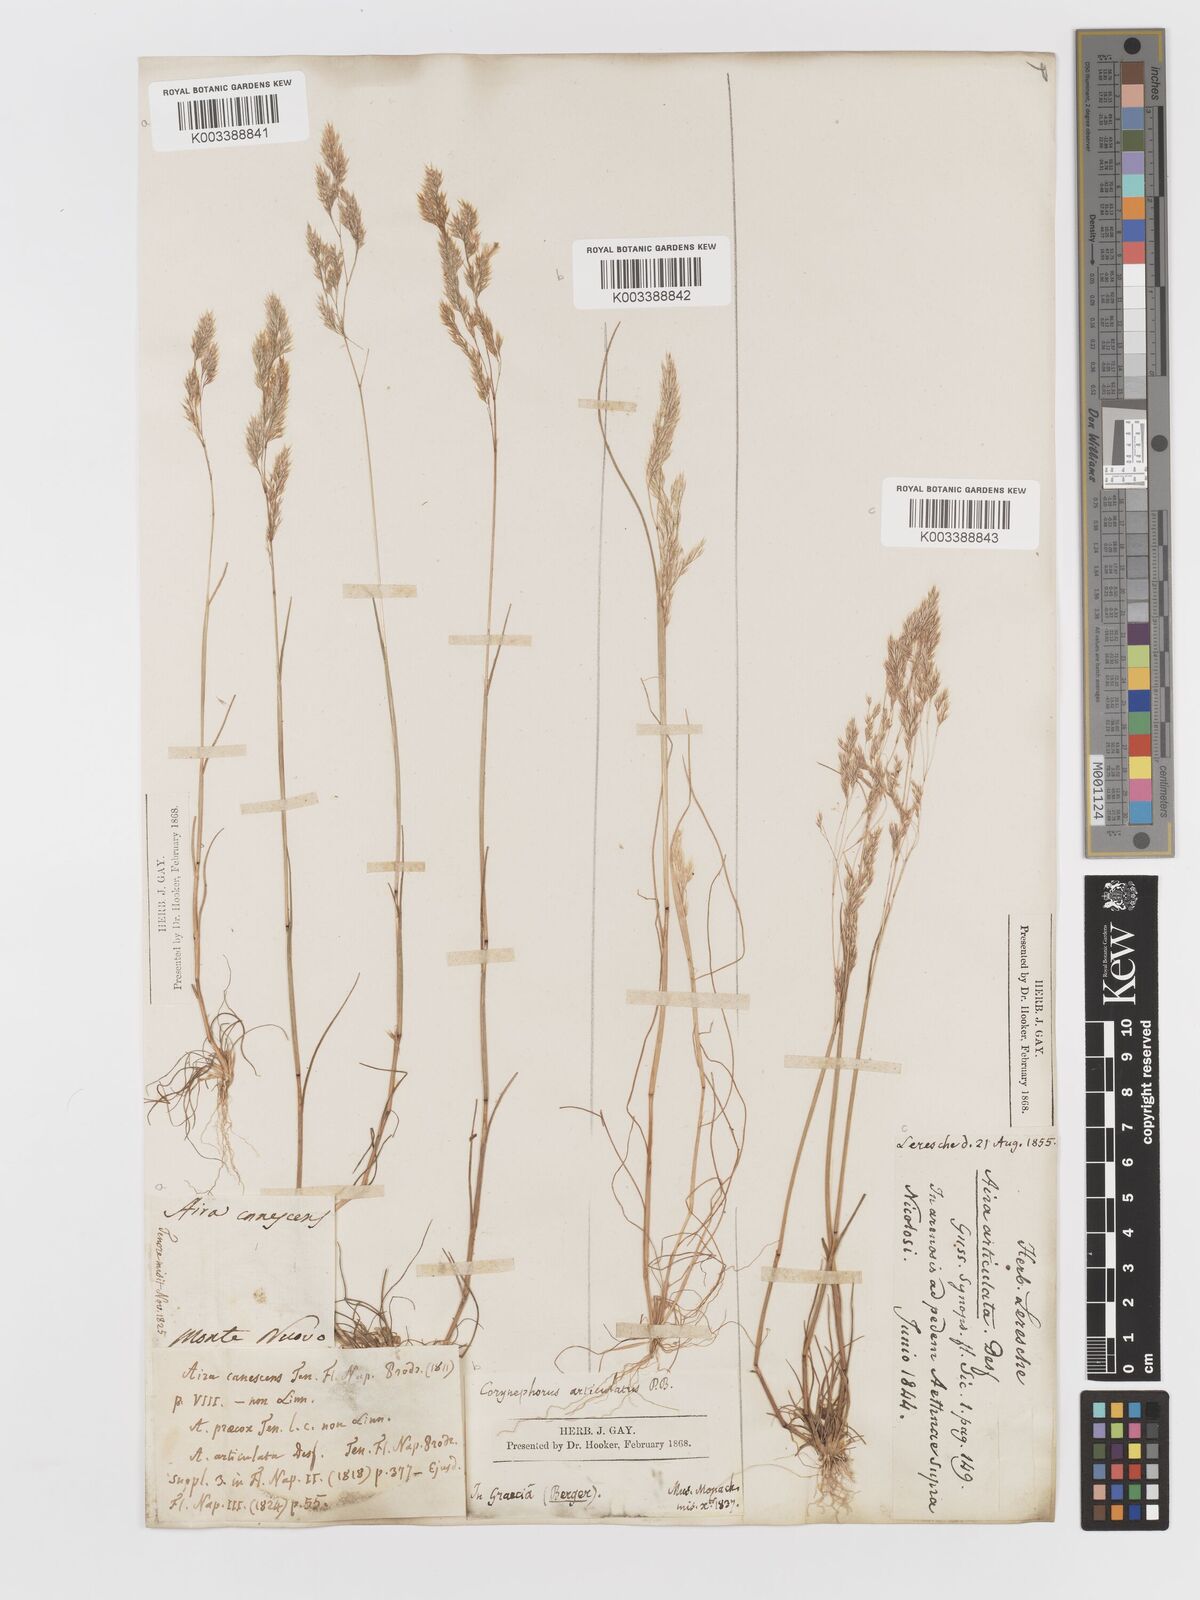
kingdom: Plantae
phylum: Tracheophyta
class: Liliopsida
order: Poales
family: Poaceae
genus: Corynephorus
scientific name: Corynephorus divaricatus
